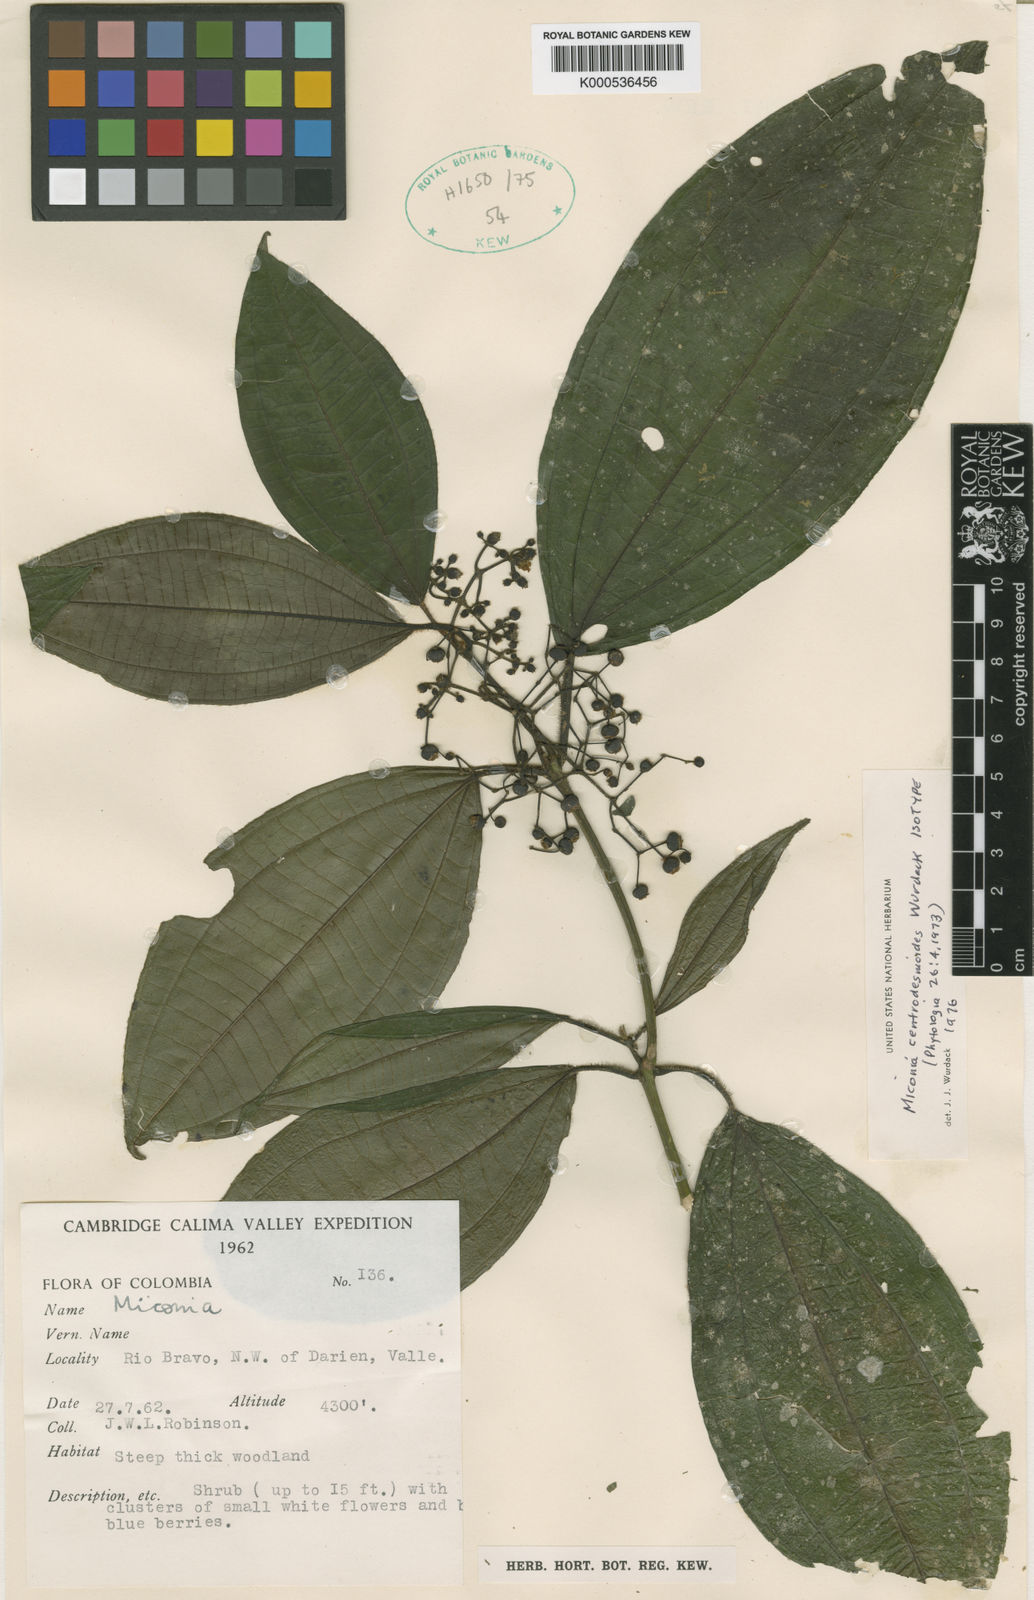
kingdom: Plantae
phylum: Tracheophyta
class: Magnoliopsida
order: Myrtales
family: Melastomataceae
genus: Miconia
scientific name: Miconia centrodesmoides
